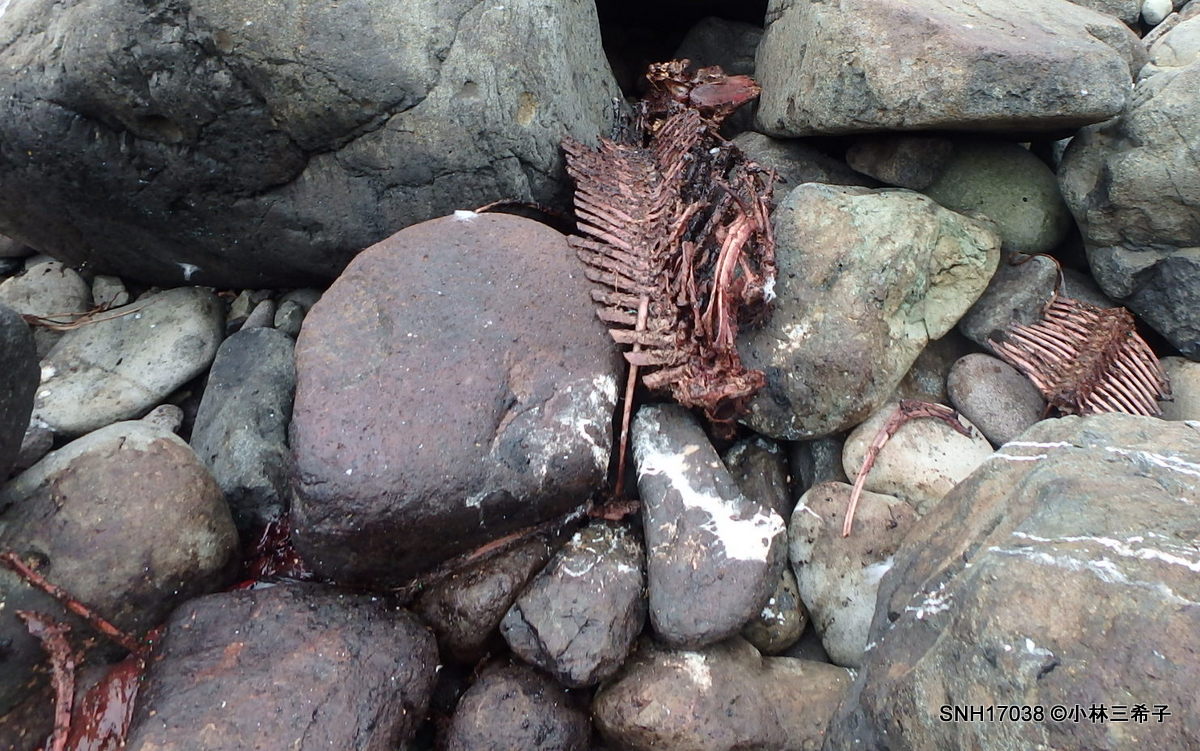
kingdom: Animalia
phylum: Chordata
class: Mammalia
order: Cetacea
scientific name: Cetacea
